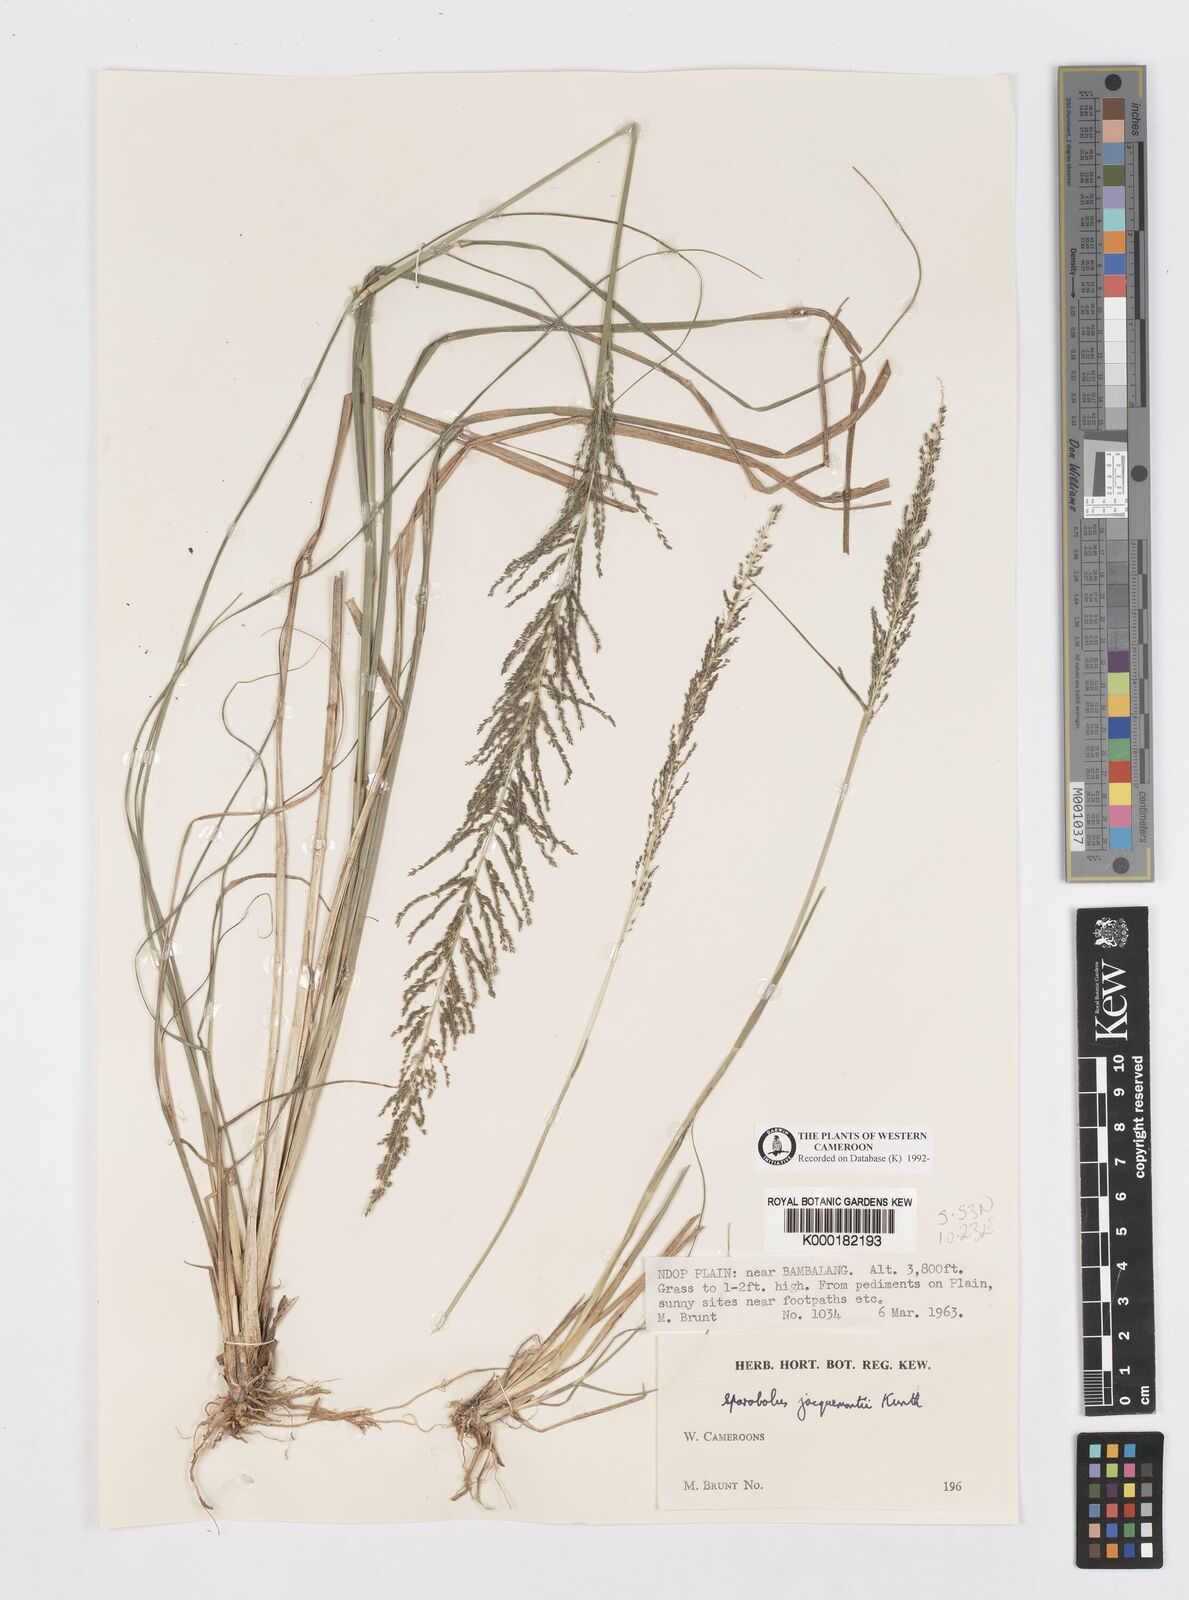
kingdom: Plantae
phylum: Tracheophyta
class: Liliopsida
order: Poales
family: Poaceae
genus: Sporobolus
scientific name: Sporobolus pyramidalis
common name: West indian dropseed
